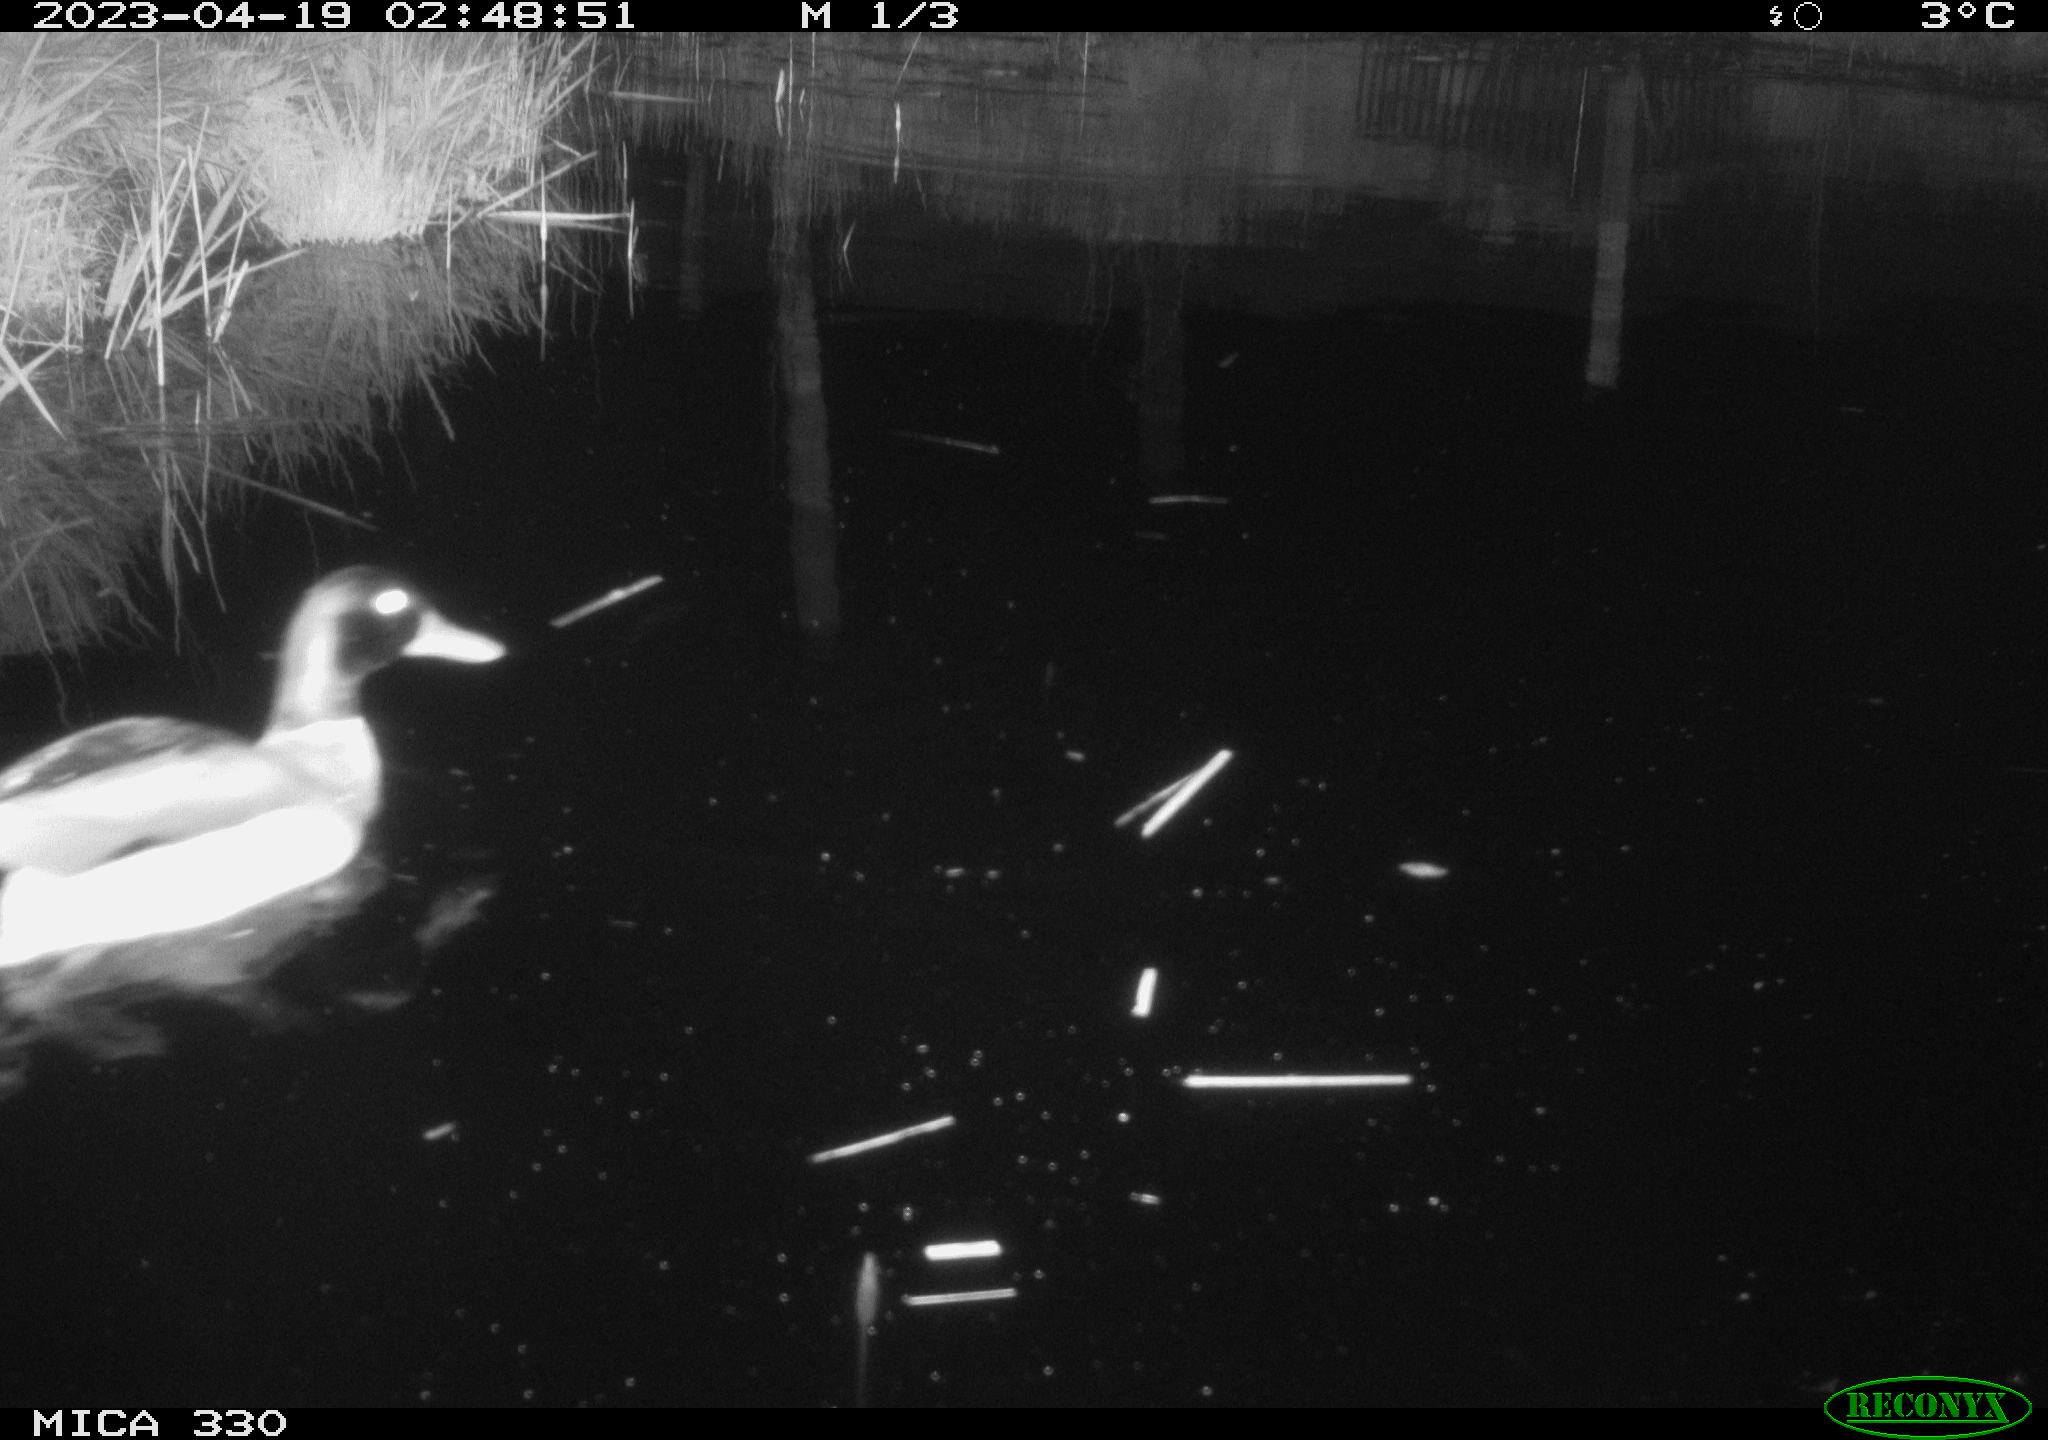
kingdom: Animalia
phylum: Chordata
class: Aves
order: Anseriformes
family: Anatidae
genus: Anas
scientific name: Anas
